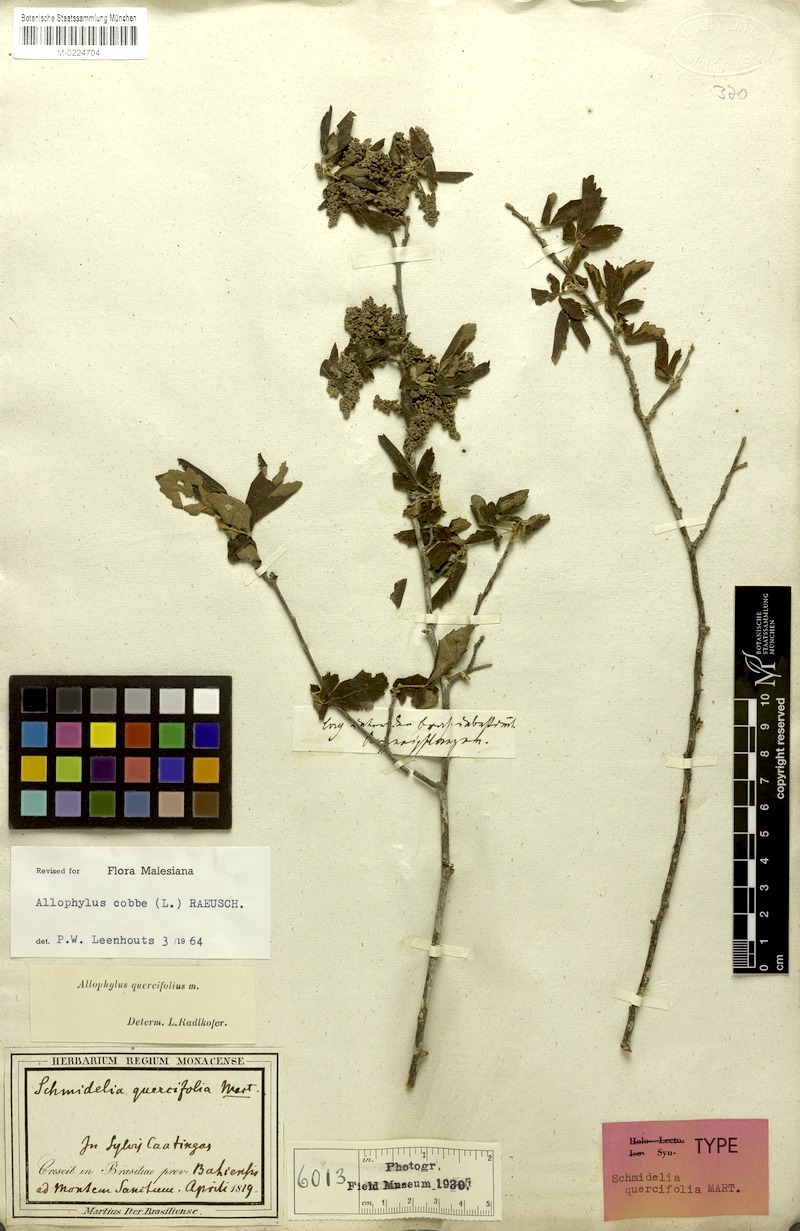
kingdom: Plantae
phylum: Tracheophyta
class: Magnoliopsida
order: Sapindales
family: Sapindaceae
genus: Allophylus
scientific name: Allophylus quercifolius
